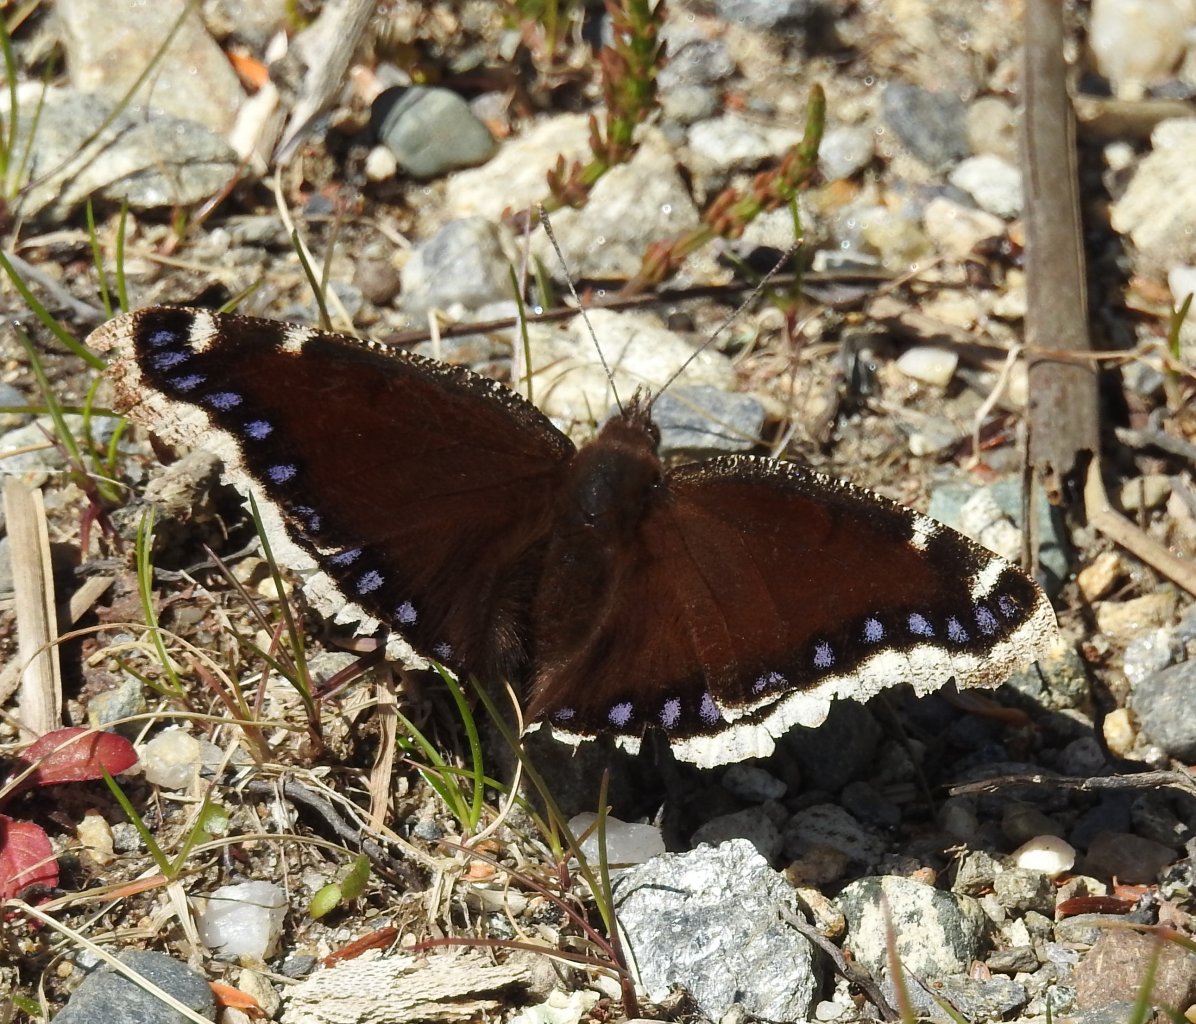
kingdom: Animalia
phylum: Arthropoda
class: Insecta
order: Lepidoptera
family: Nymphalidae
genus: Nymphalis
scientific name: Nymphalis antiopa
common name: Mourning Cloak
